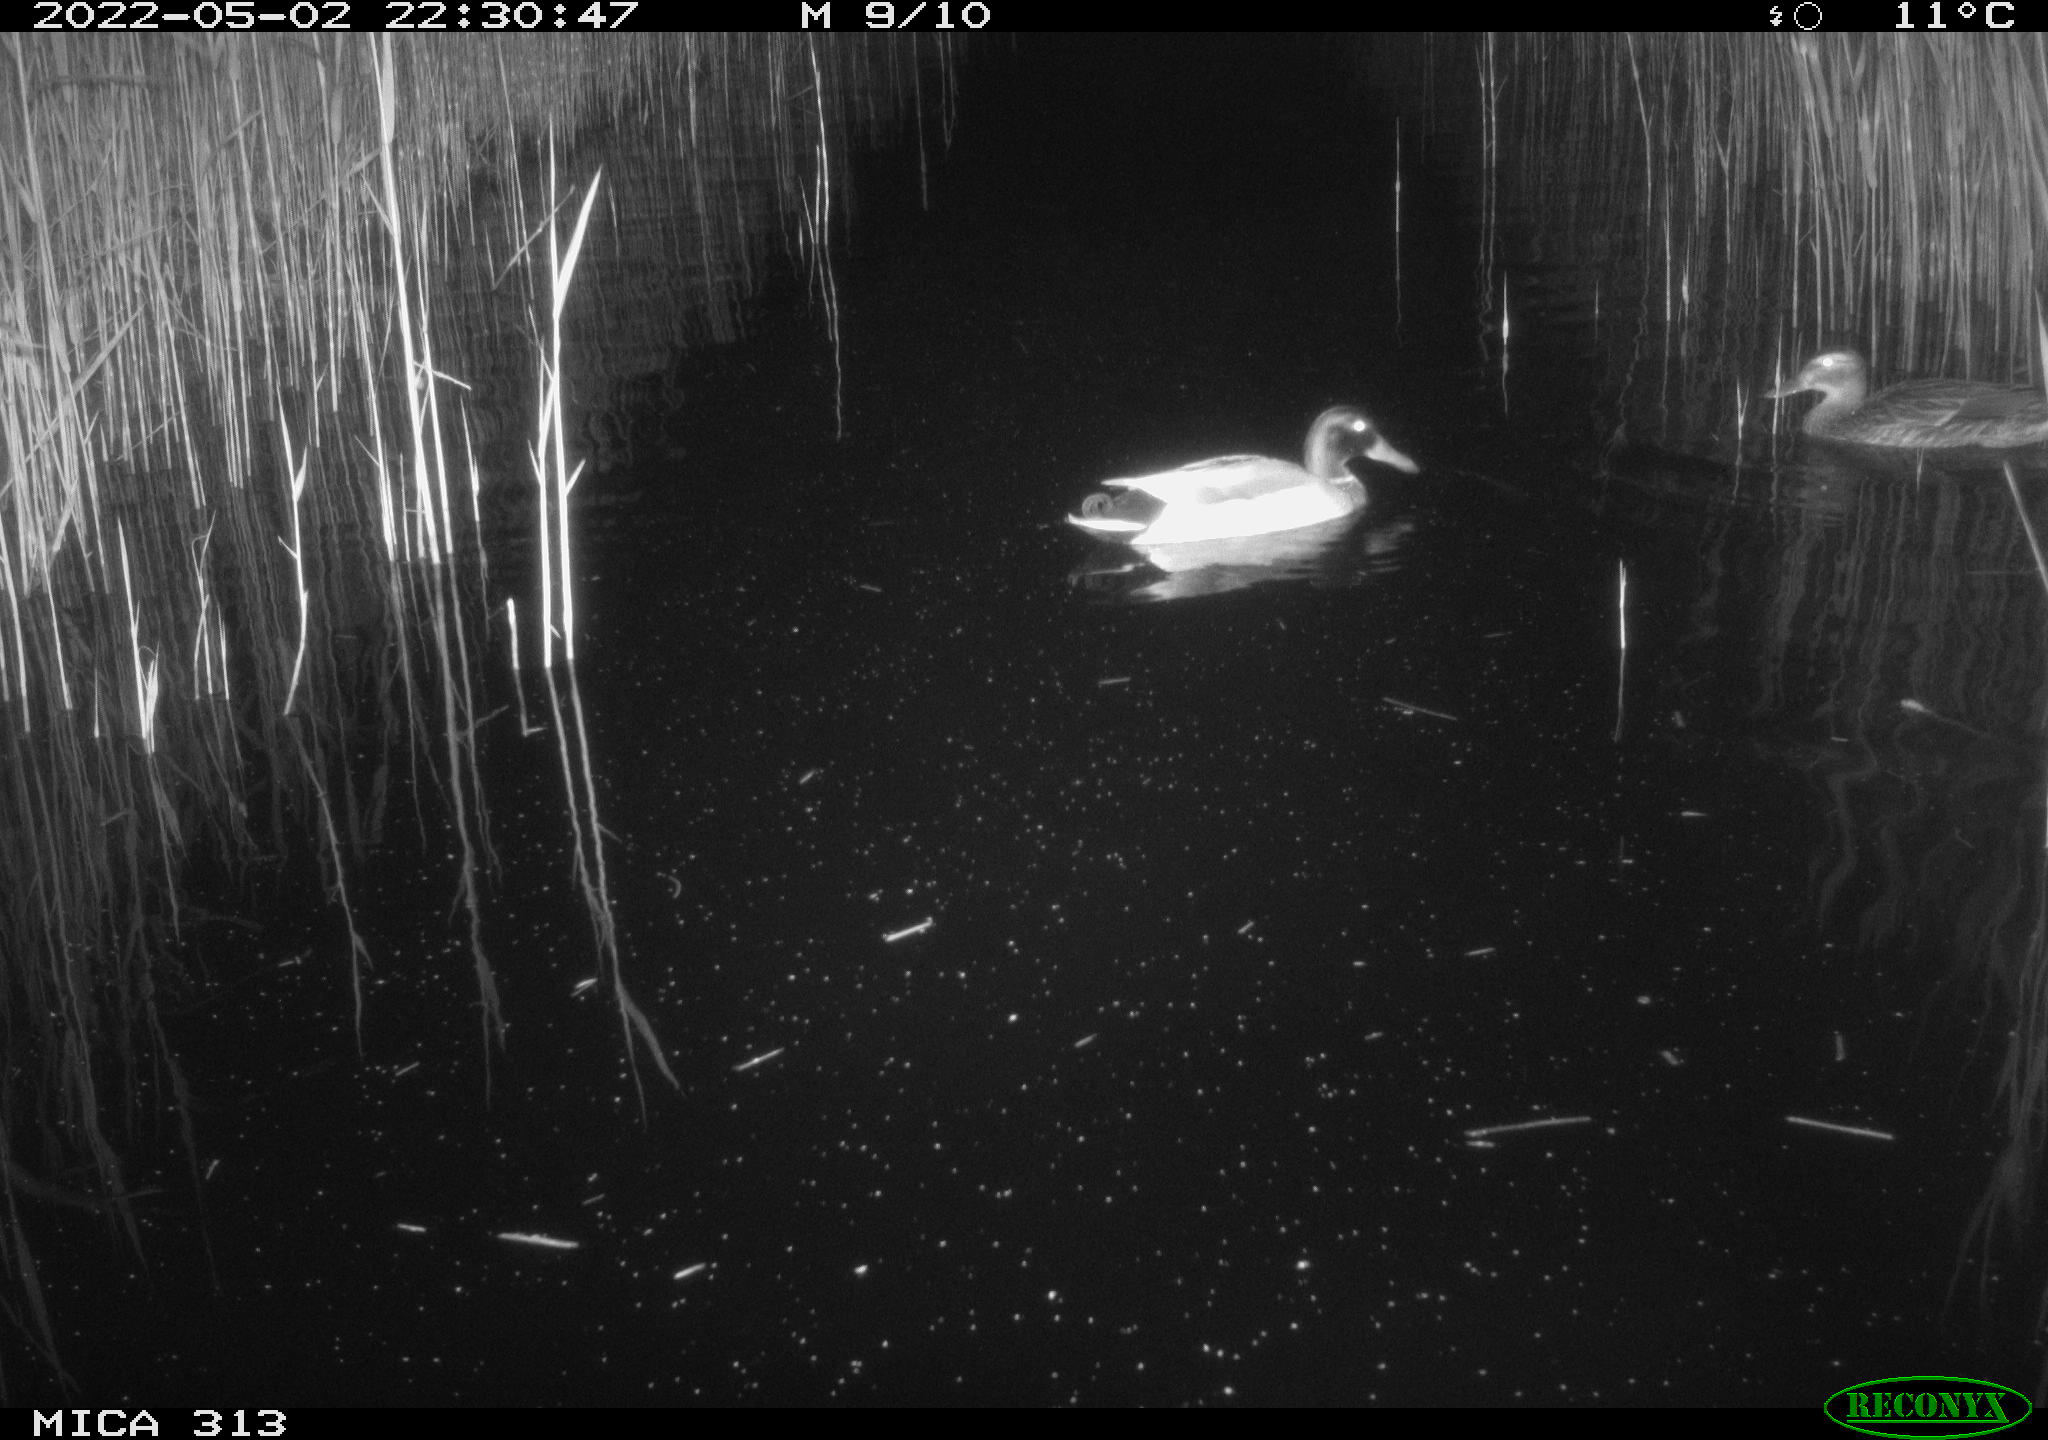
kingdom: Animalia
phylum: Chordata
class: Aves
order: Anseriformes
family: Anatidae
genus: Mareca
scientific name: Mareca strepera
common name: Gadwall
